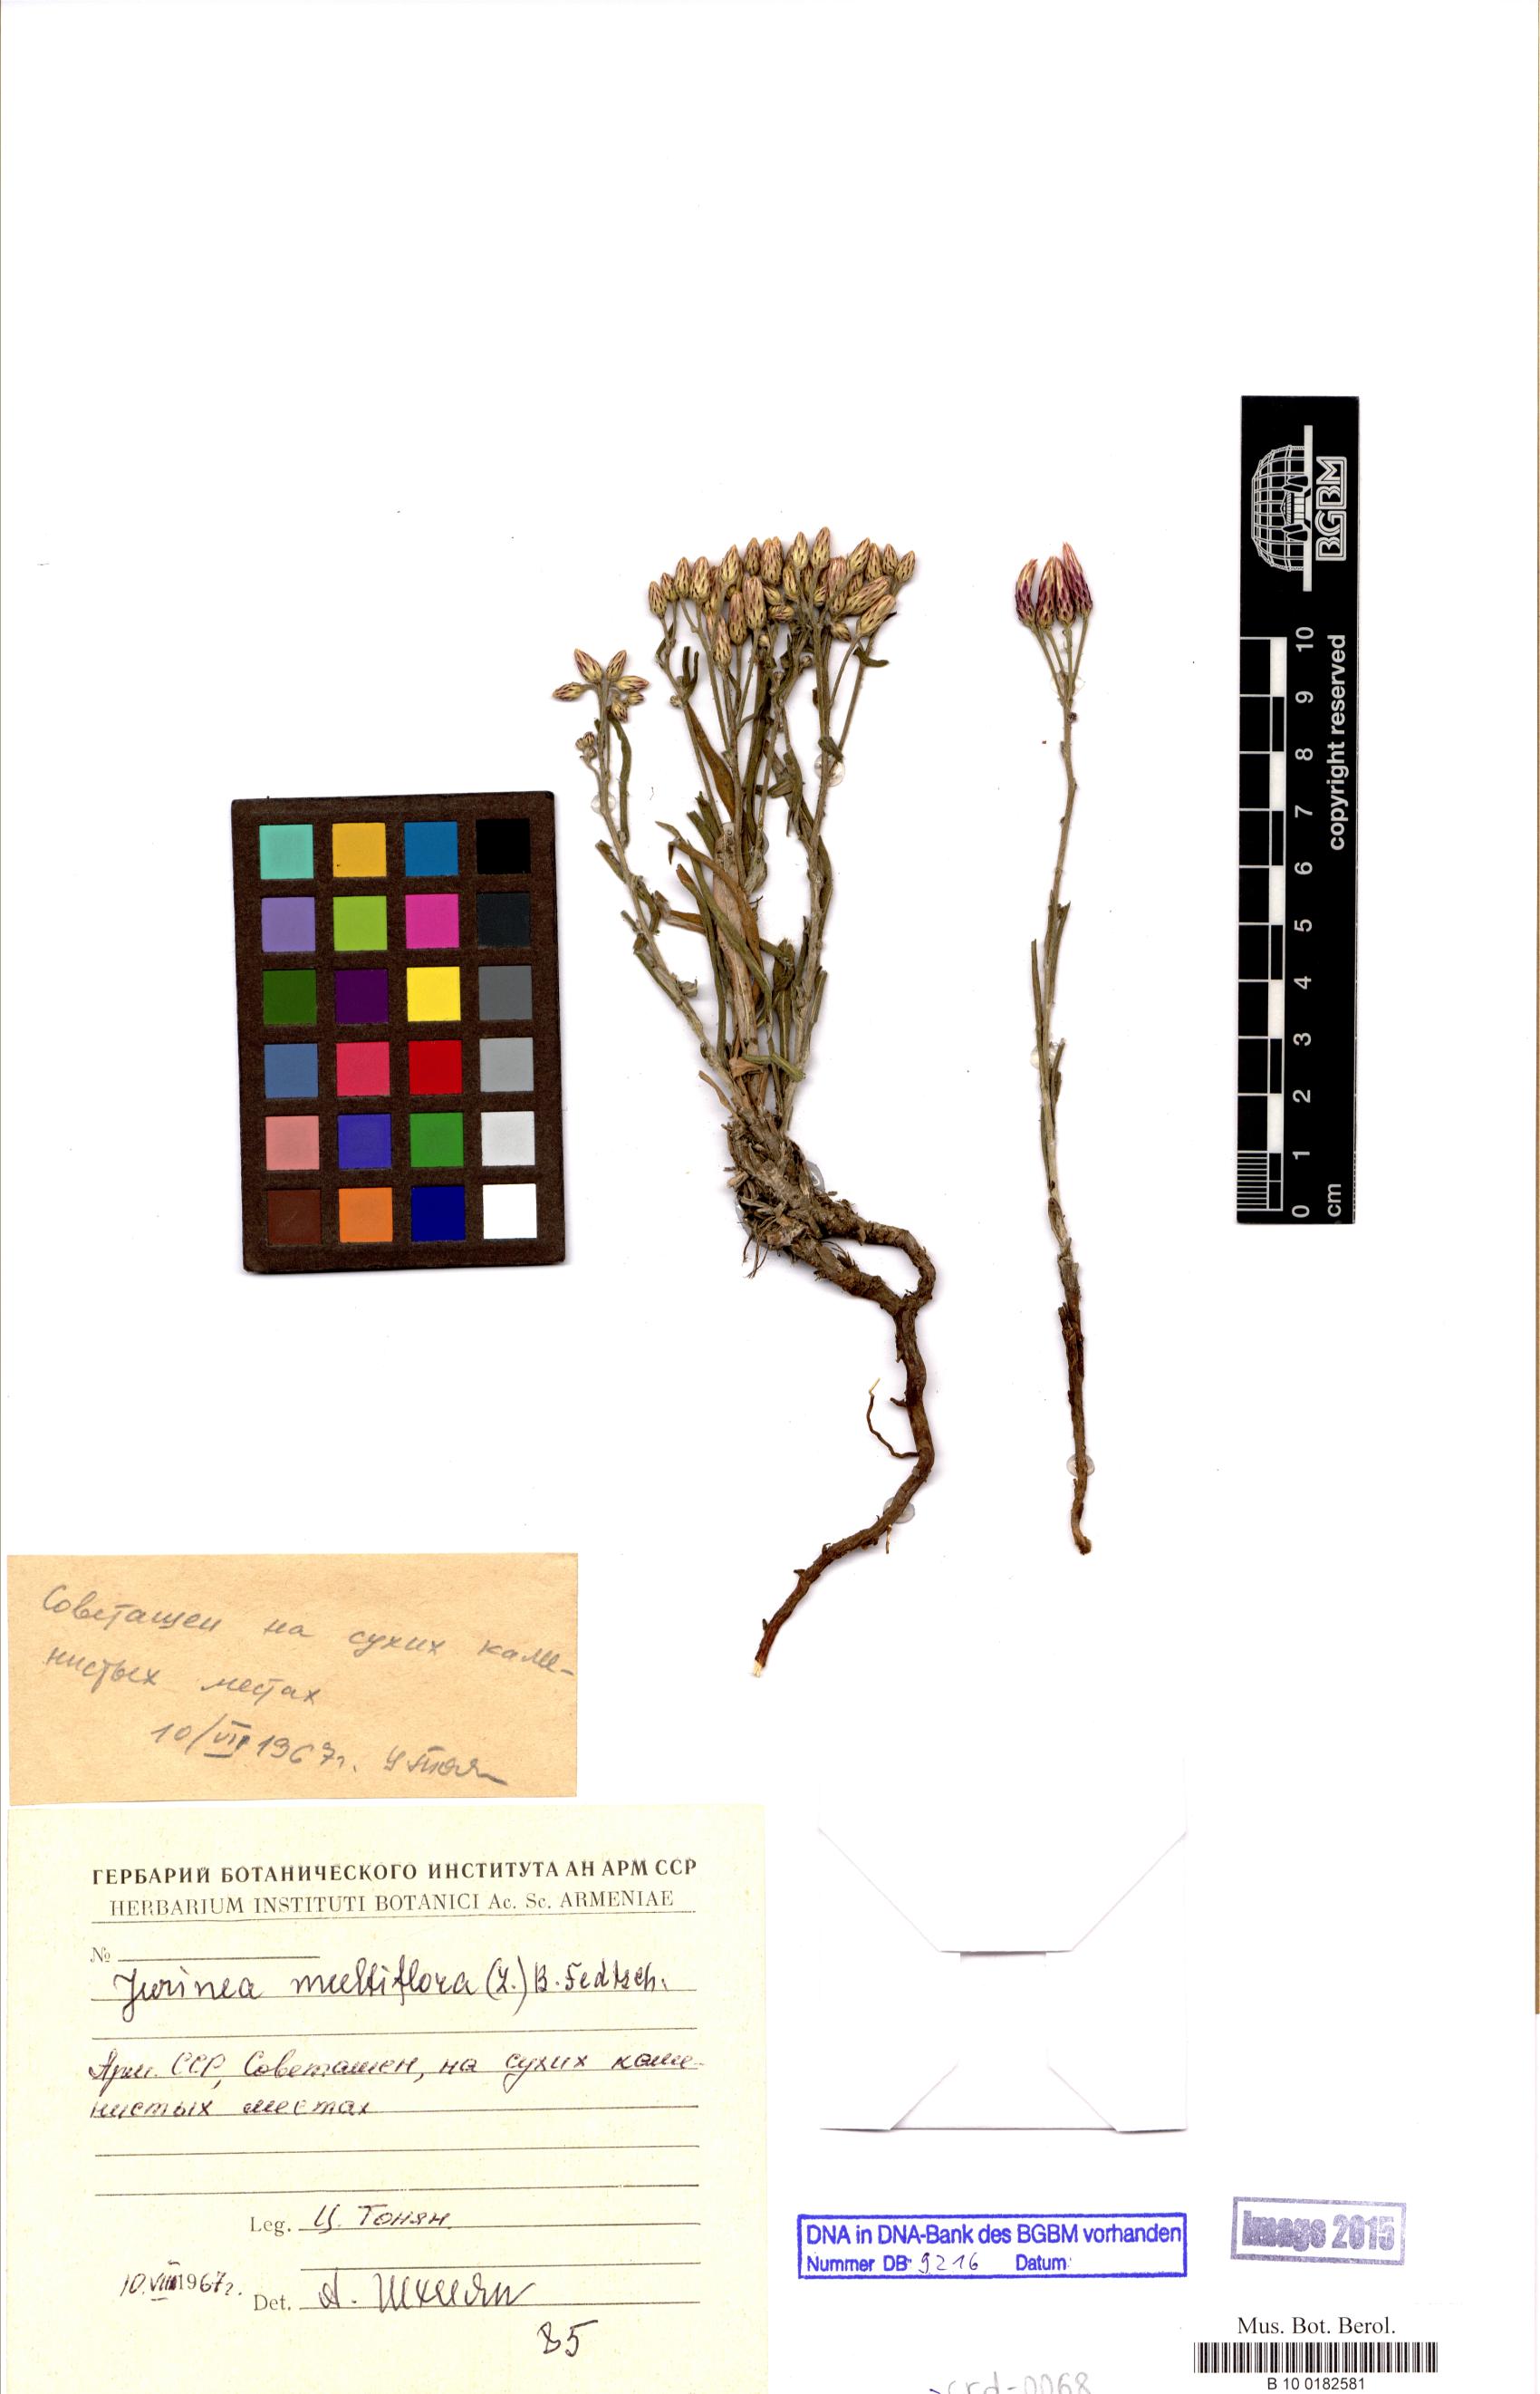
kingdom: Plantae
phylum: Tracheophyta
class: Magnoliopsida
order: Asterales
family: Asteraceae
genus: Jurinea
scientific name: Jurinea multiflora
